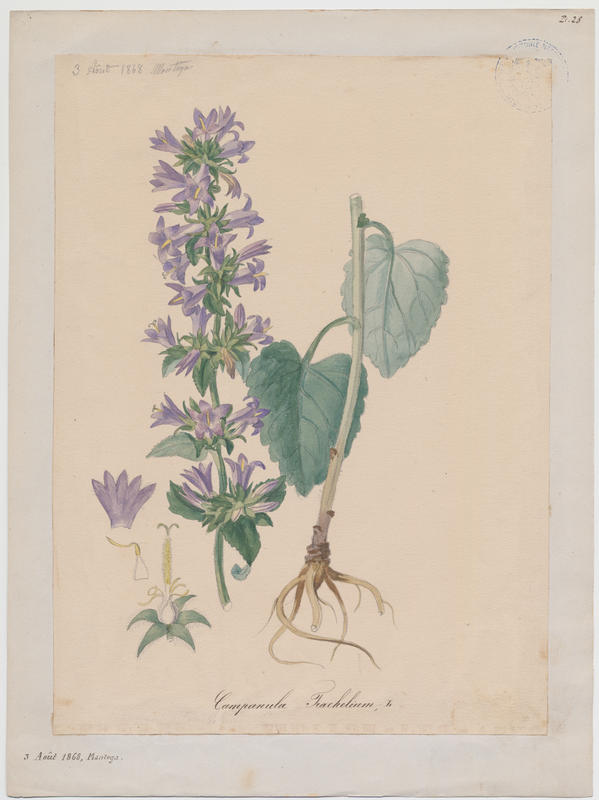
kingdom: Plantae
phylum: Tracheophyta
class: Magnoliopsida
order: Asterales
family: Campanulaceae
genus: Campanula
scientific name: Campanula trachelium
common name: Nettle-leaved bellflower
